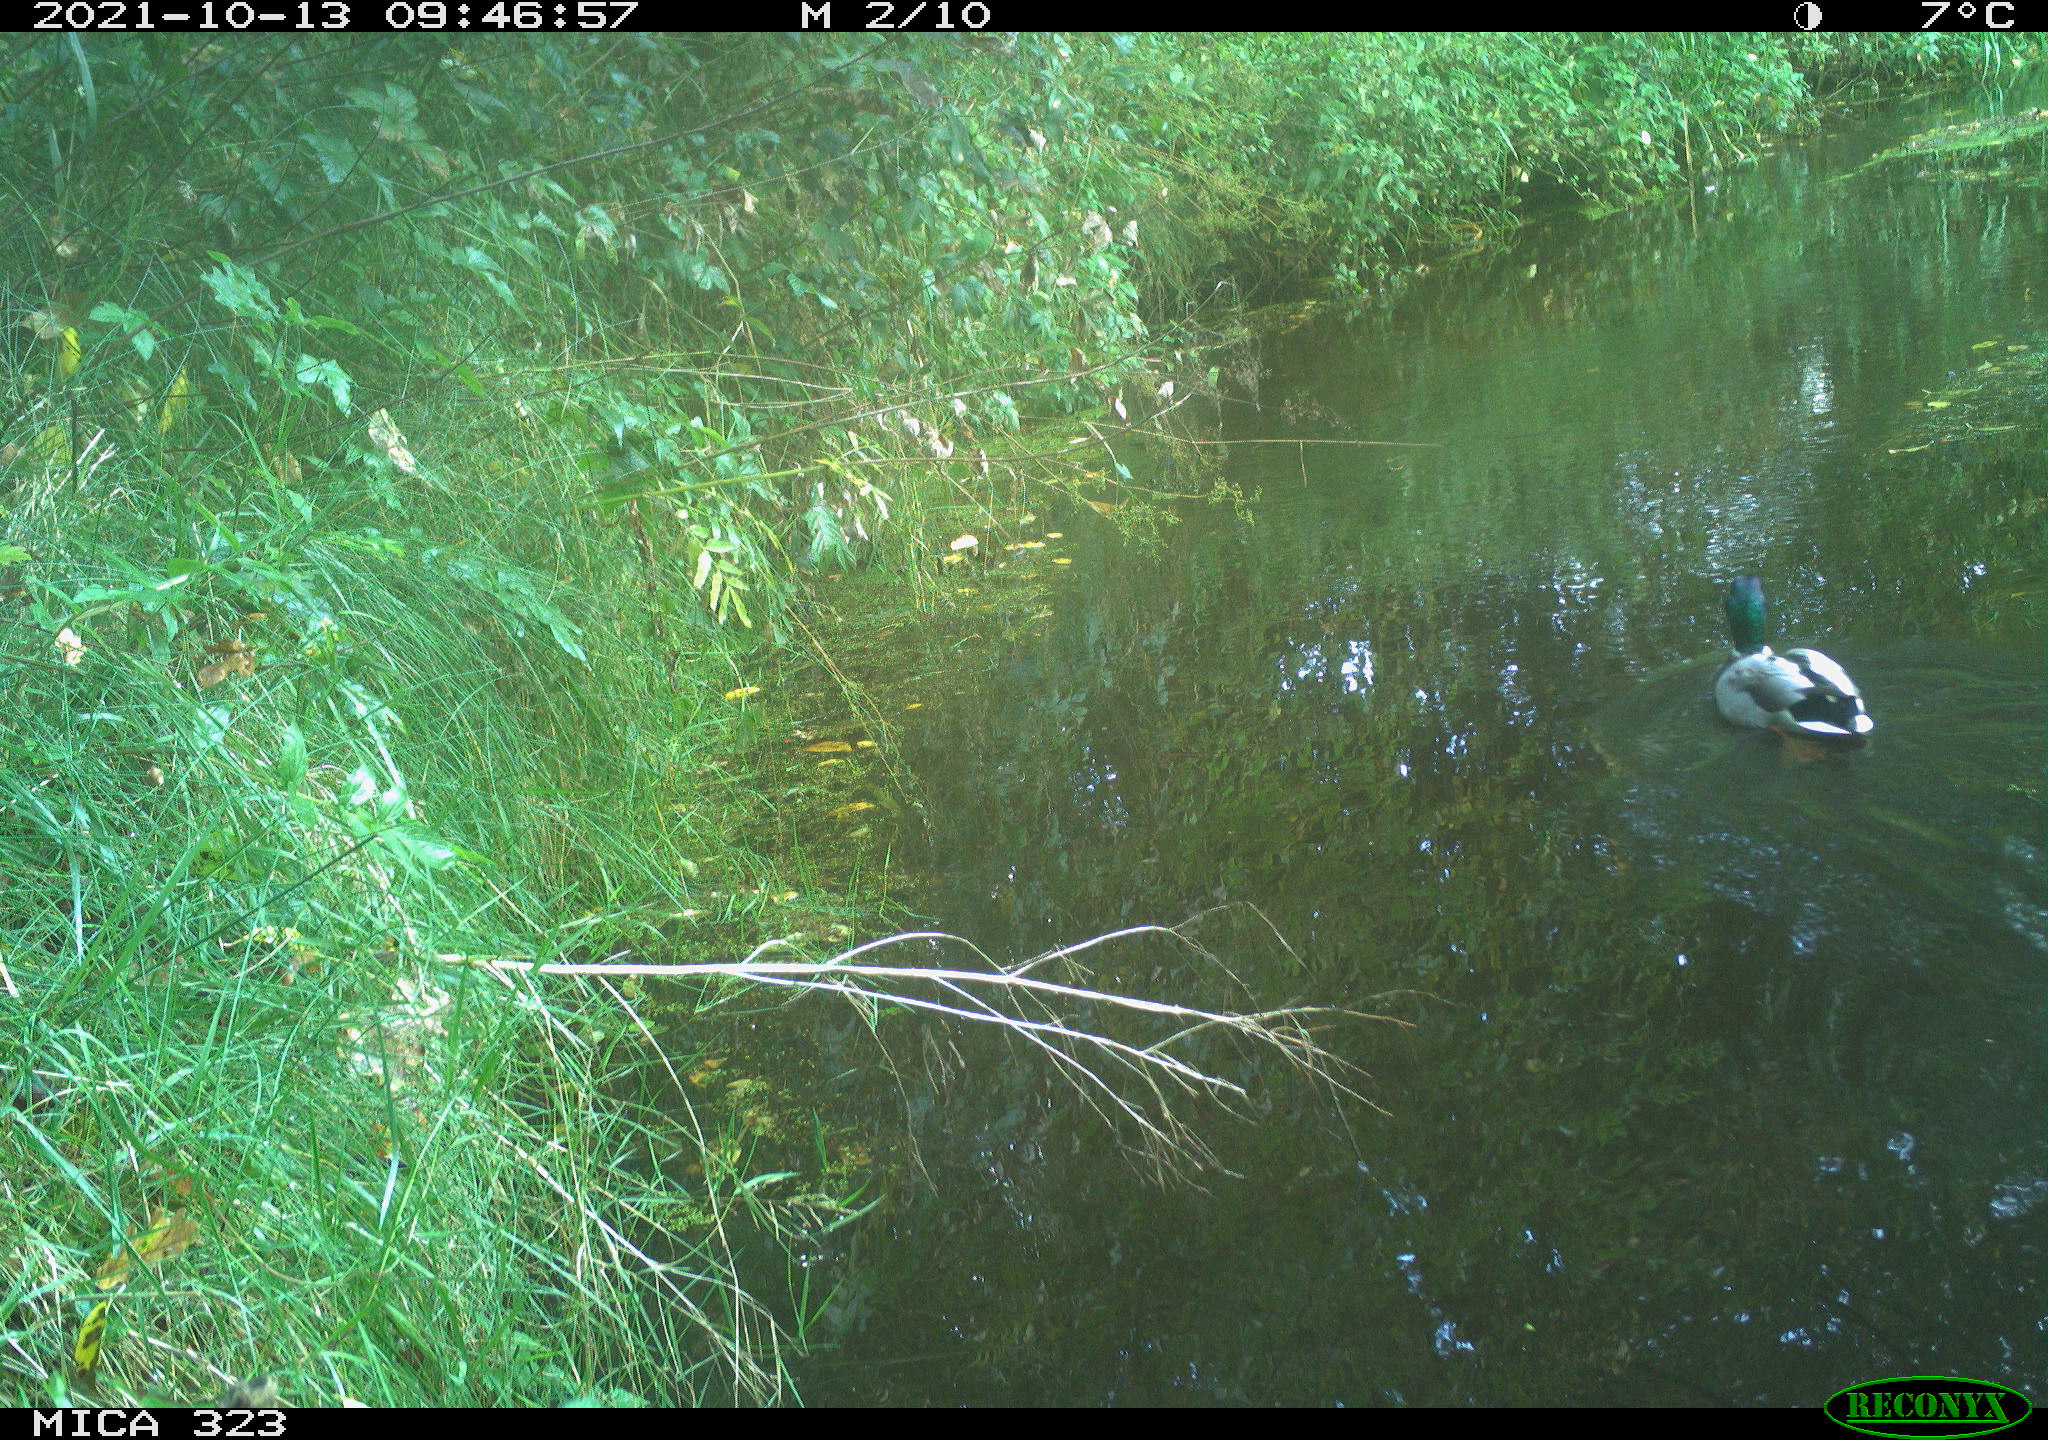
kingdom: Animalia
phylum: Chordata
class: Aves
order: Anseriformes
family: Anatidae
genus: Anas
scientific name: Anas platyrhynchos
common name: Mallard
